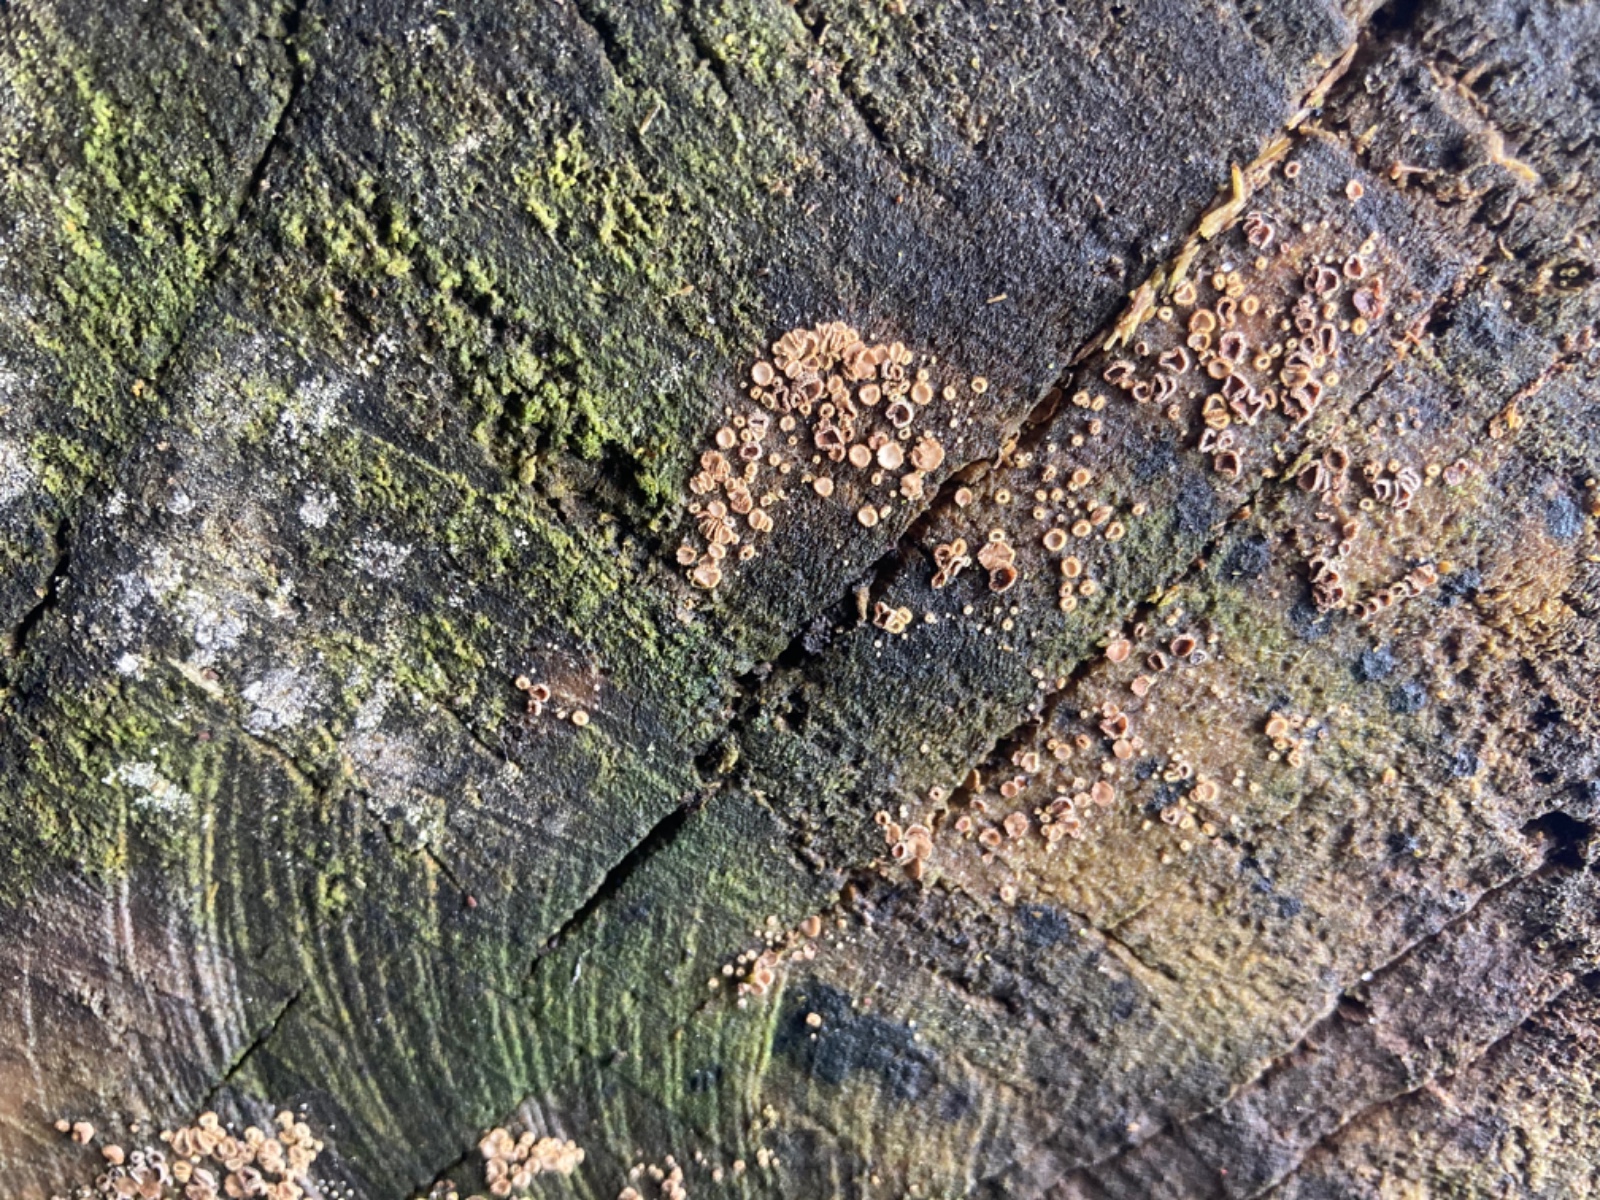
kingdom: Fungi
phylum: Ascomycota
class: Leotiomycetes
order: Helotiales
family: Lachnaceae
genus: Trichopeziza
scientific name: Trichopeziza subsulphurea
